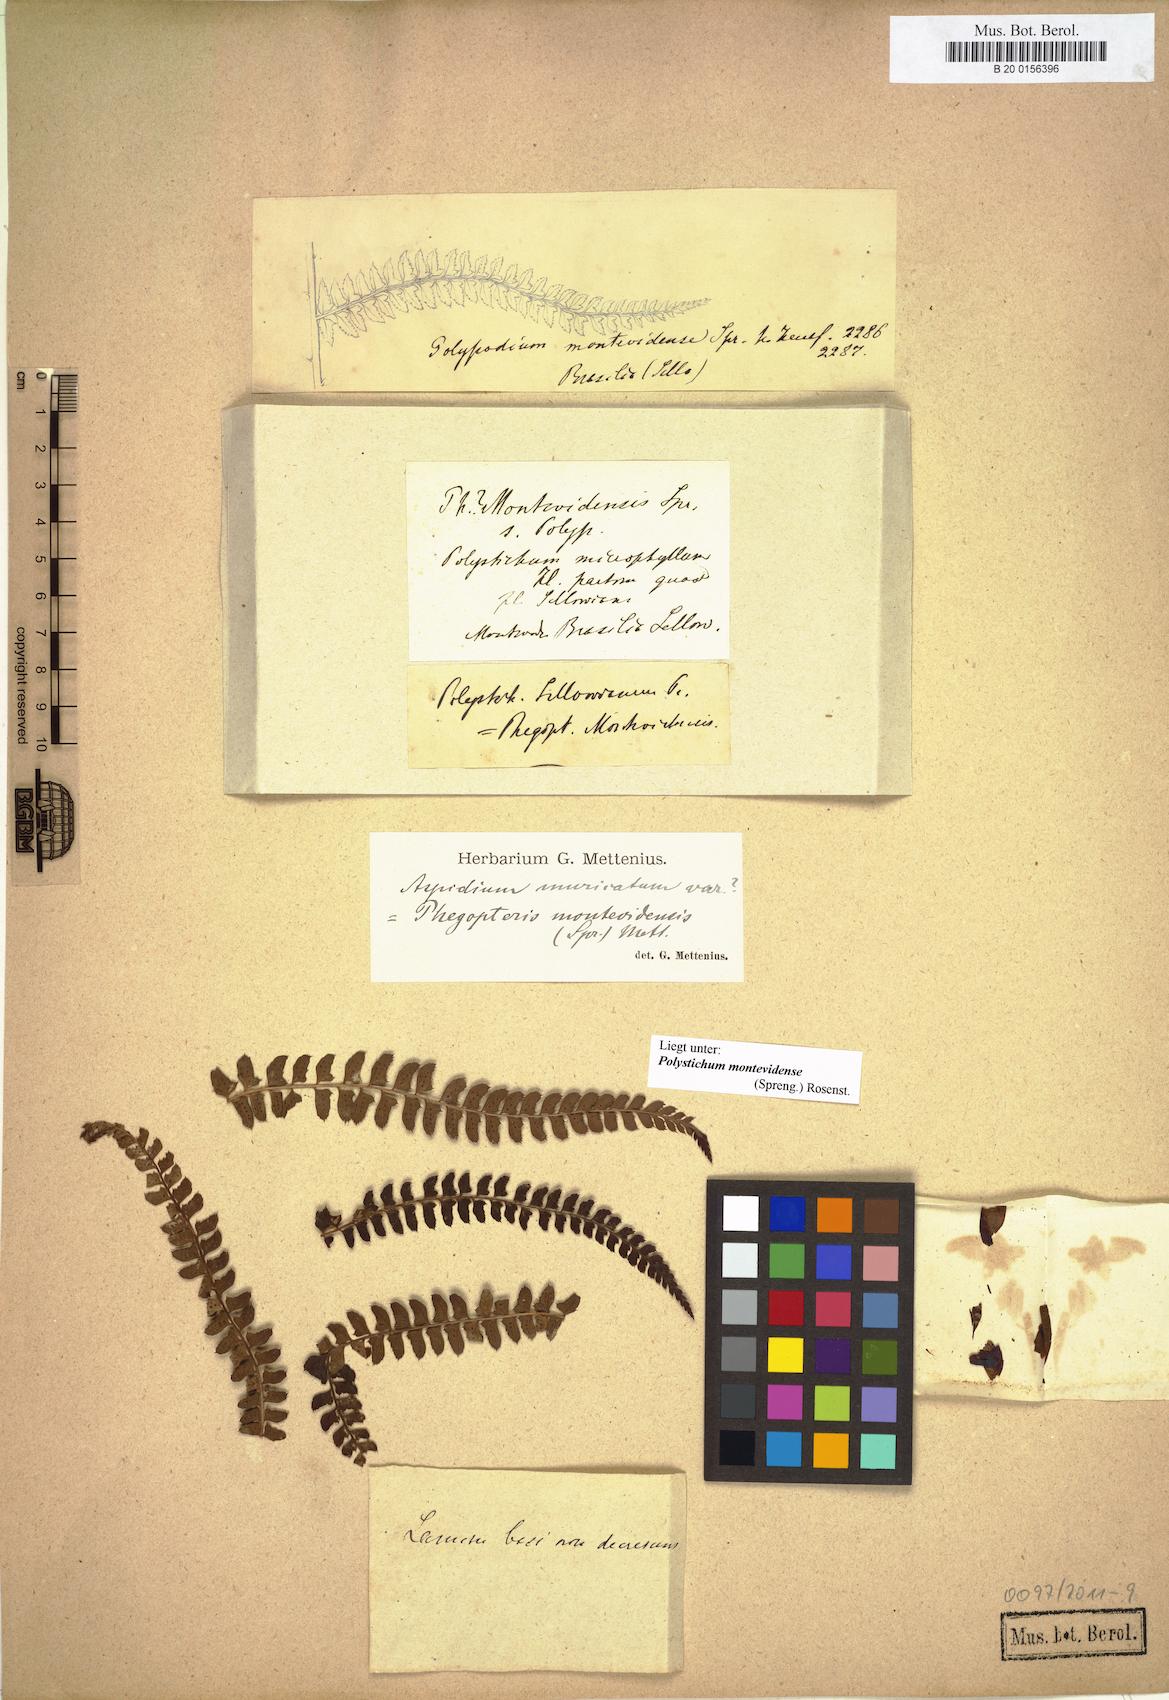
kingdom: Plantae
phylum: Tracheophyta
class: Polypodiopsida
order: Polypodiales
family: Dryopteridaceae
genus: Polystichum
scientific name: Polystichum montevidense
